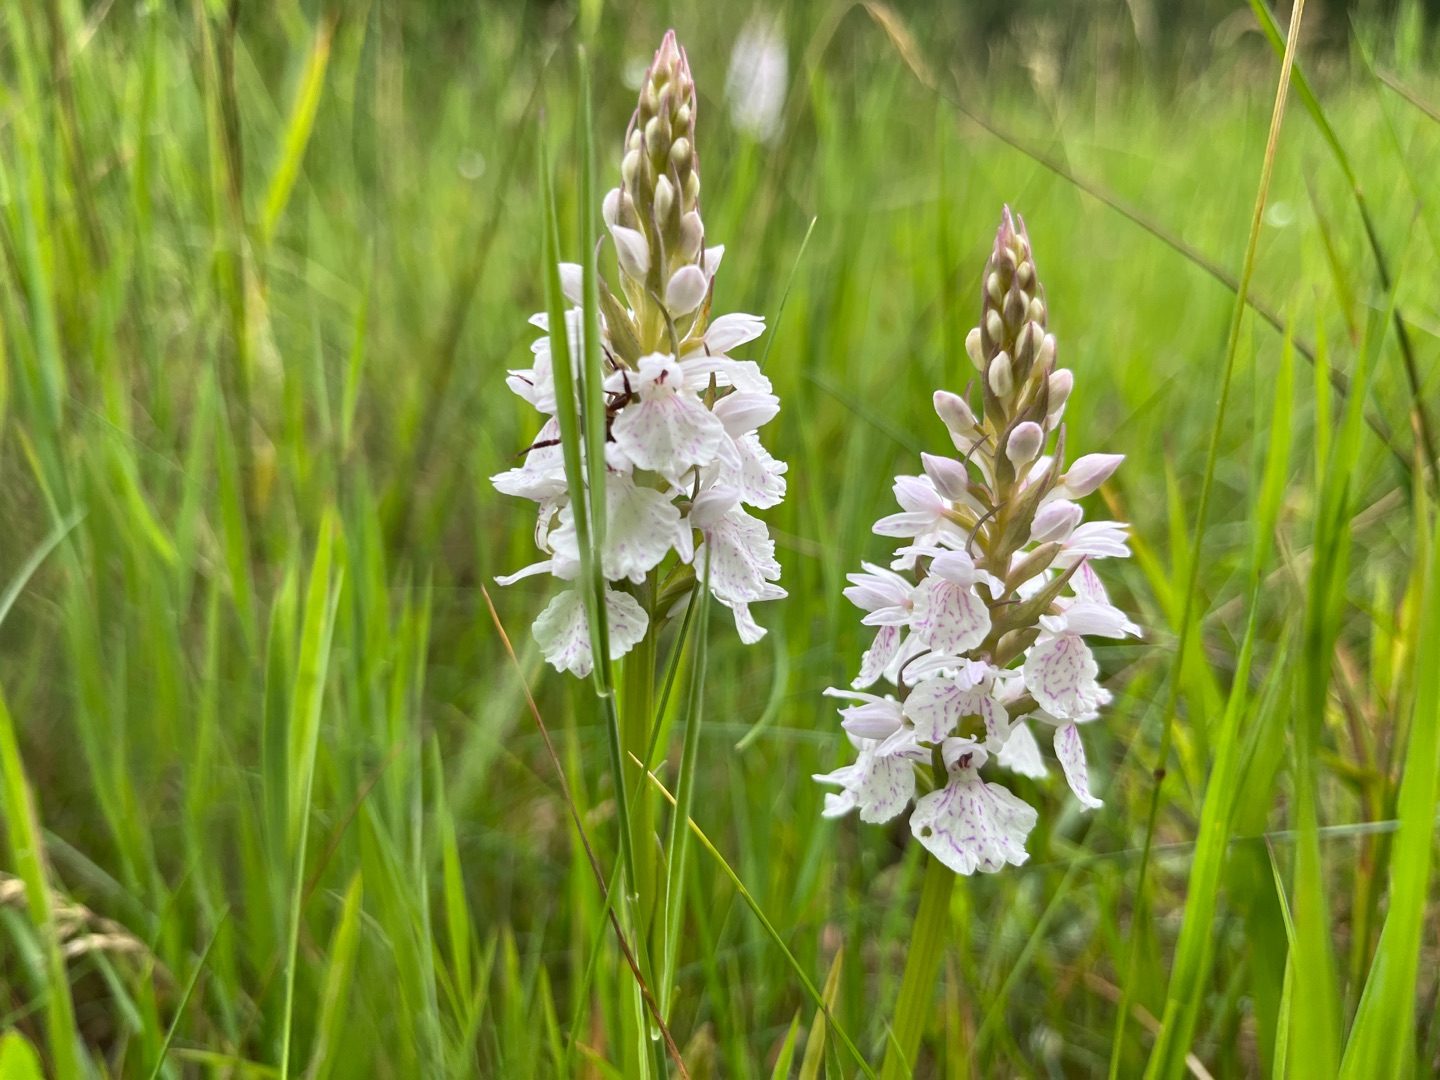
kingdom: Plantae
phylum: Tracheophyta
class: Liliopsida
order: Asparagales
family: Orchidaceae
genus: Dactylorhiza
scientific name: Dactylorhiza maculata
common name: Plettet gøgeurt (underart)
